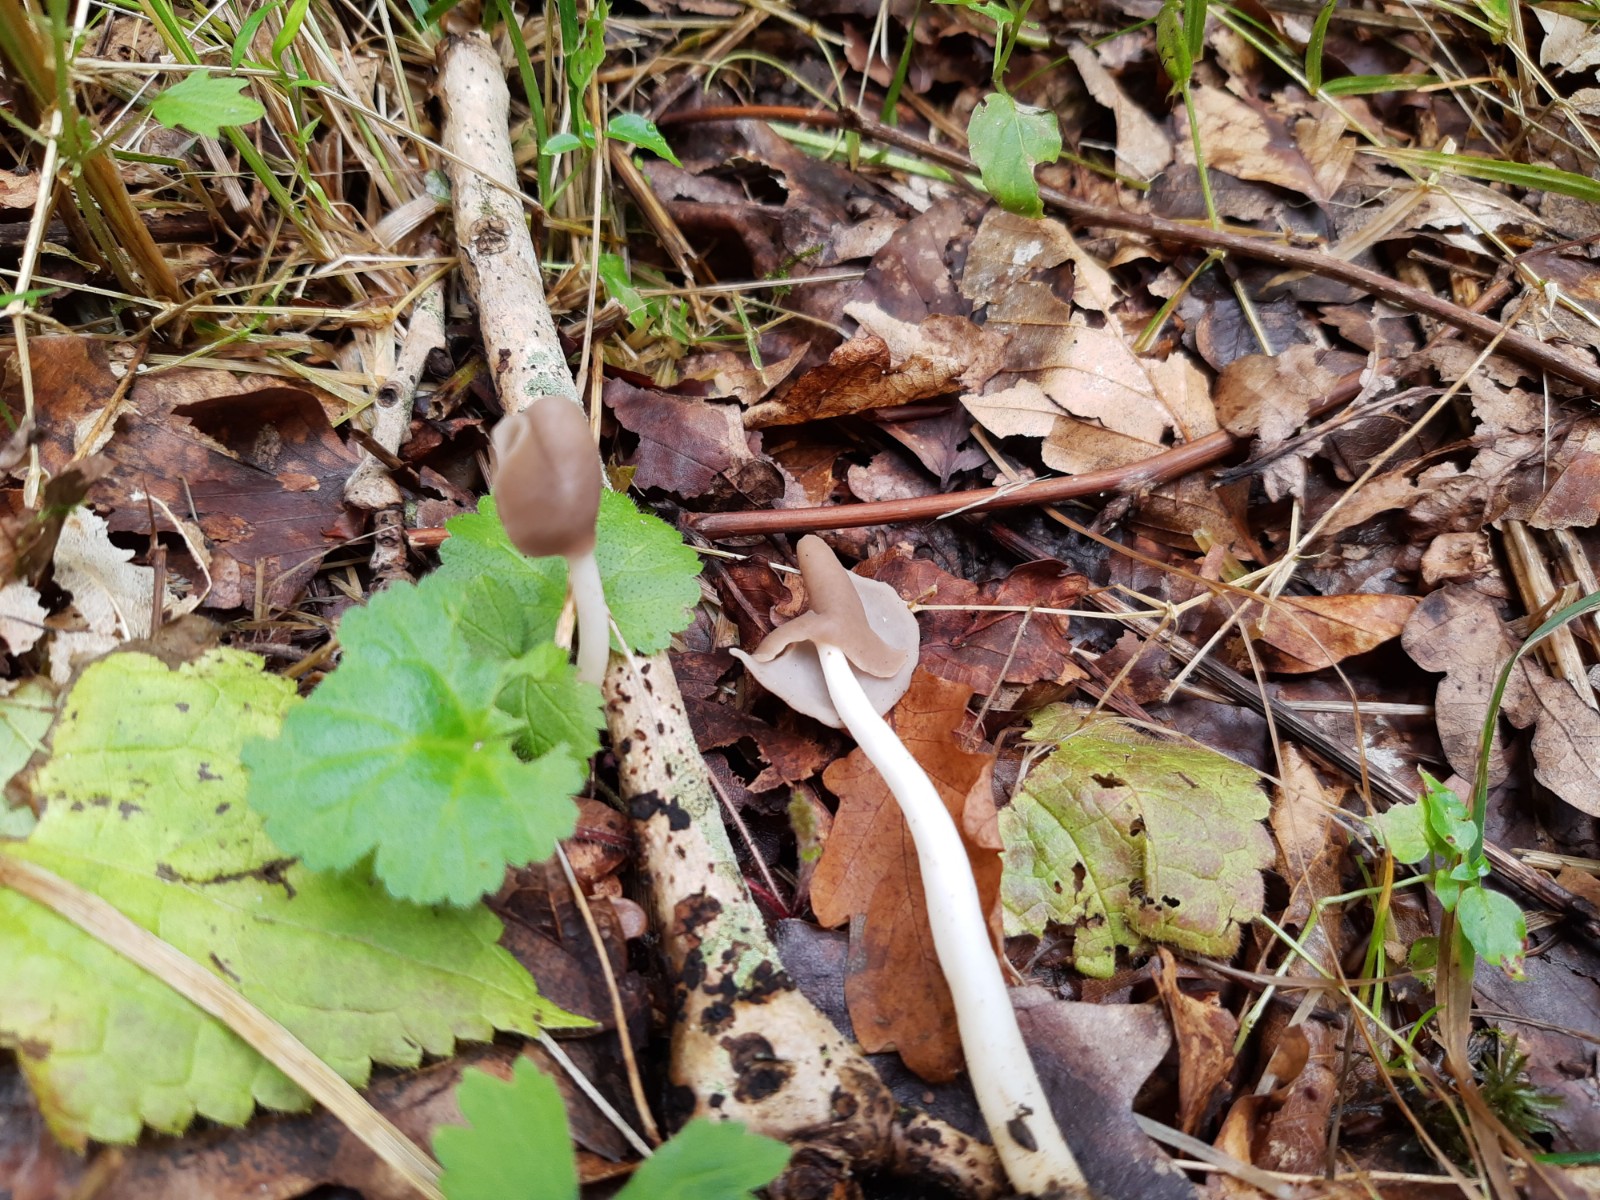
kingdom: Fungi
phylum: Ascomycota
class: Pezizomycetes
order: Pezizales
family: Helvellaceae
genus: Helvella
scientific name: Helvella elastica
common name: elastik-foldhat
